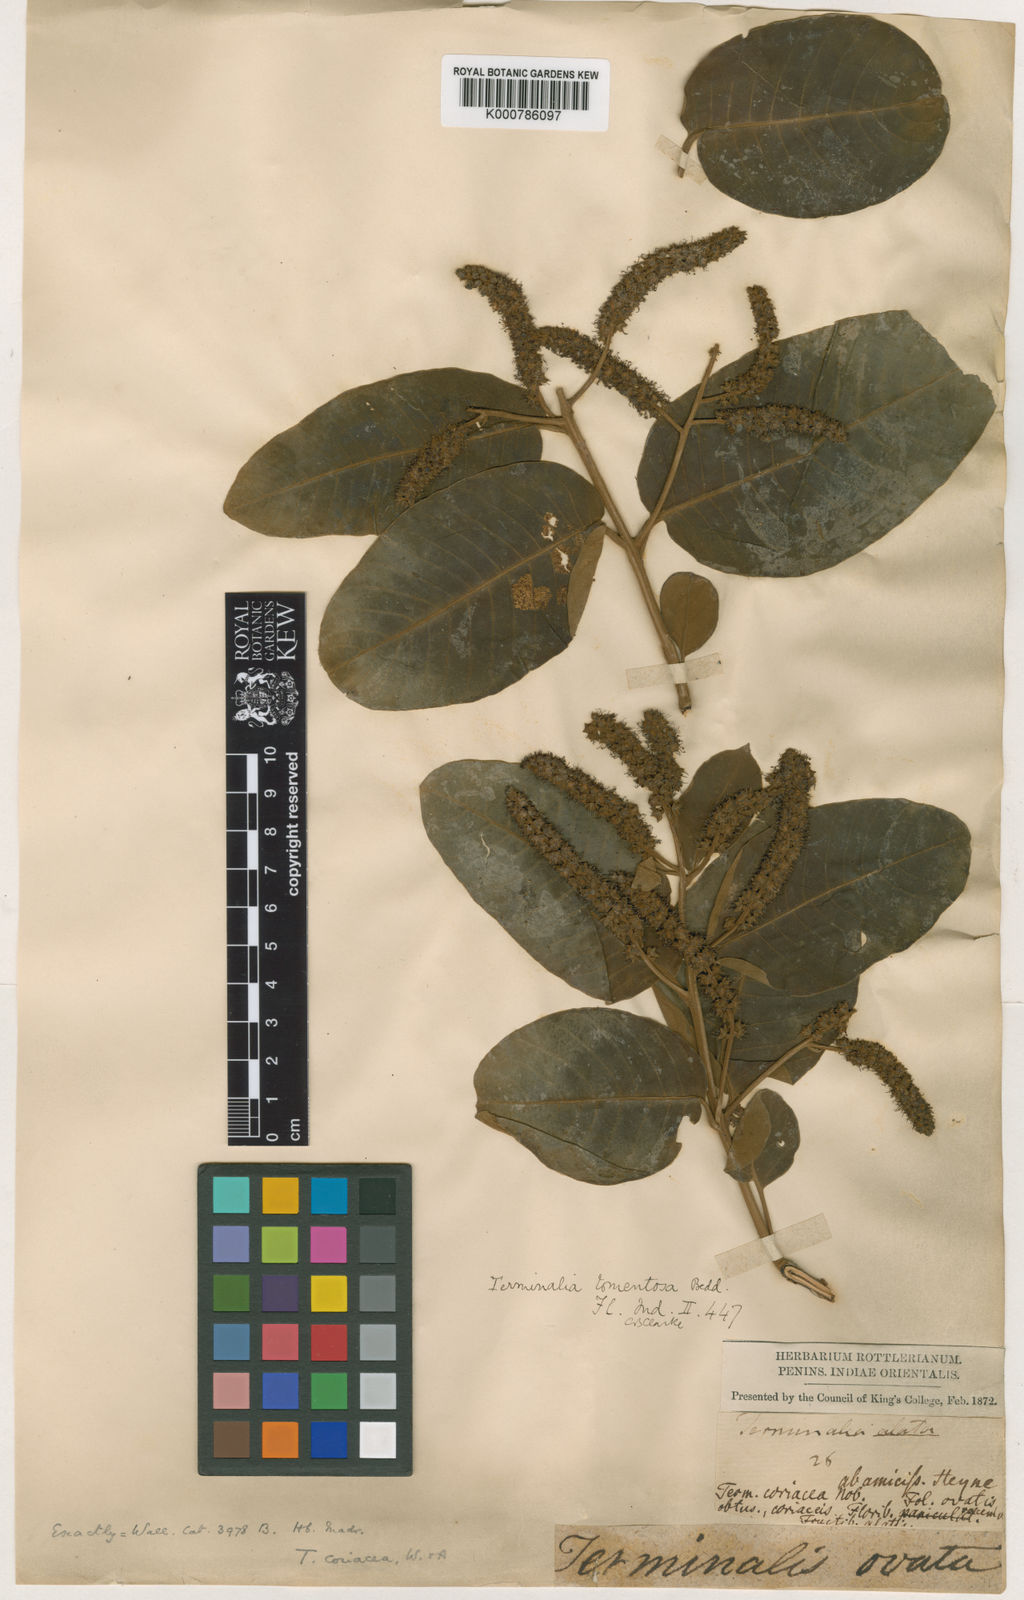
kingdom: Plantae
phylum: Tracheophyta
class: Magnoliopsida
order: Myrtales
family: Combretaceae
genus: Terminalia
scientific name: Terminalia coriacea
